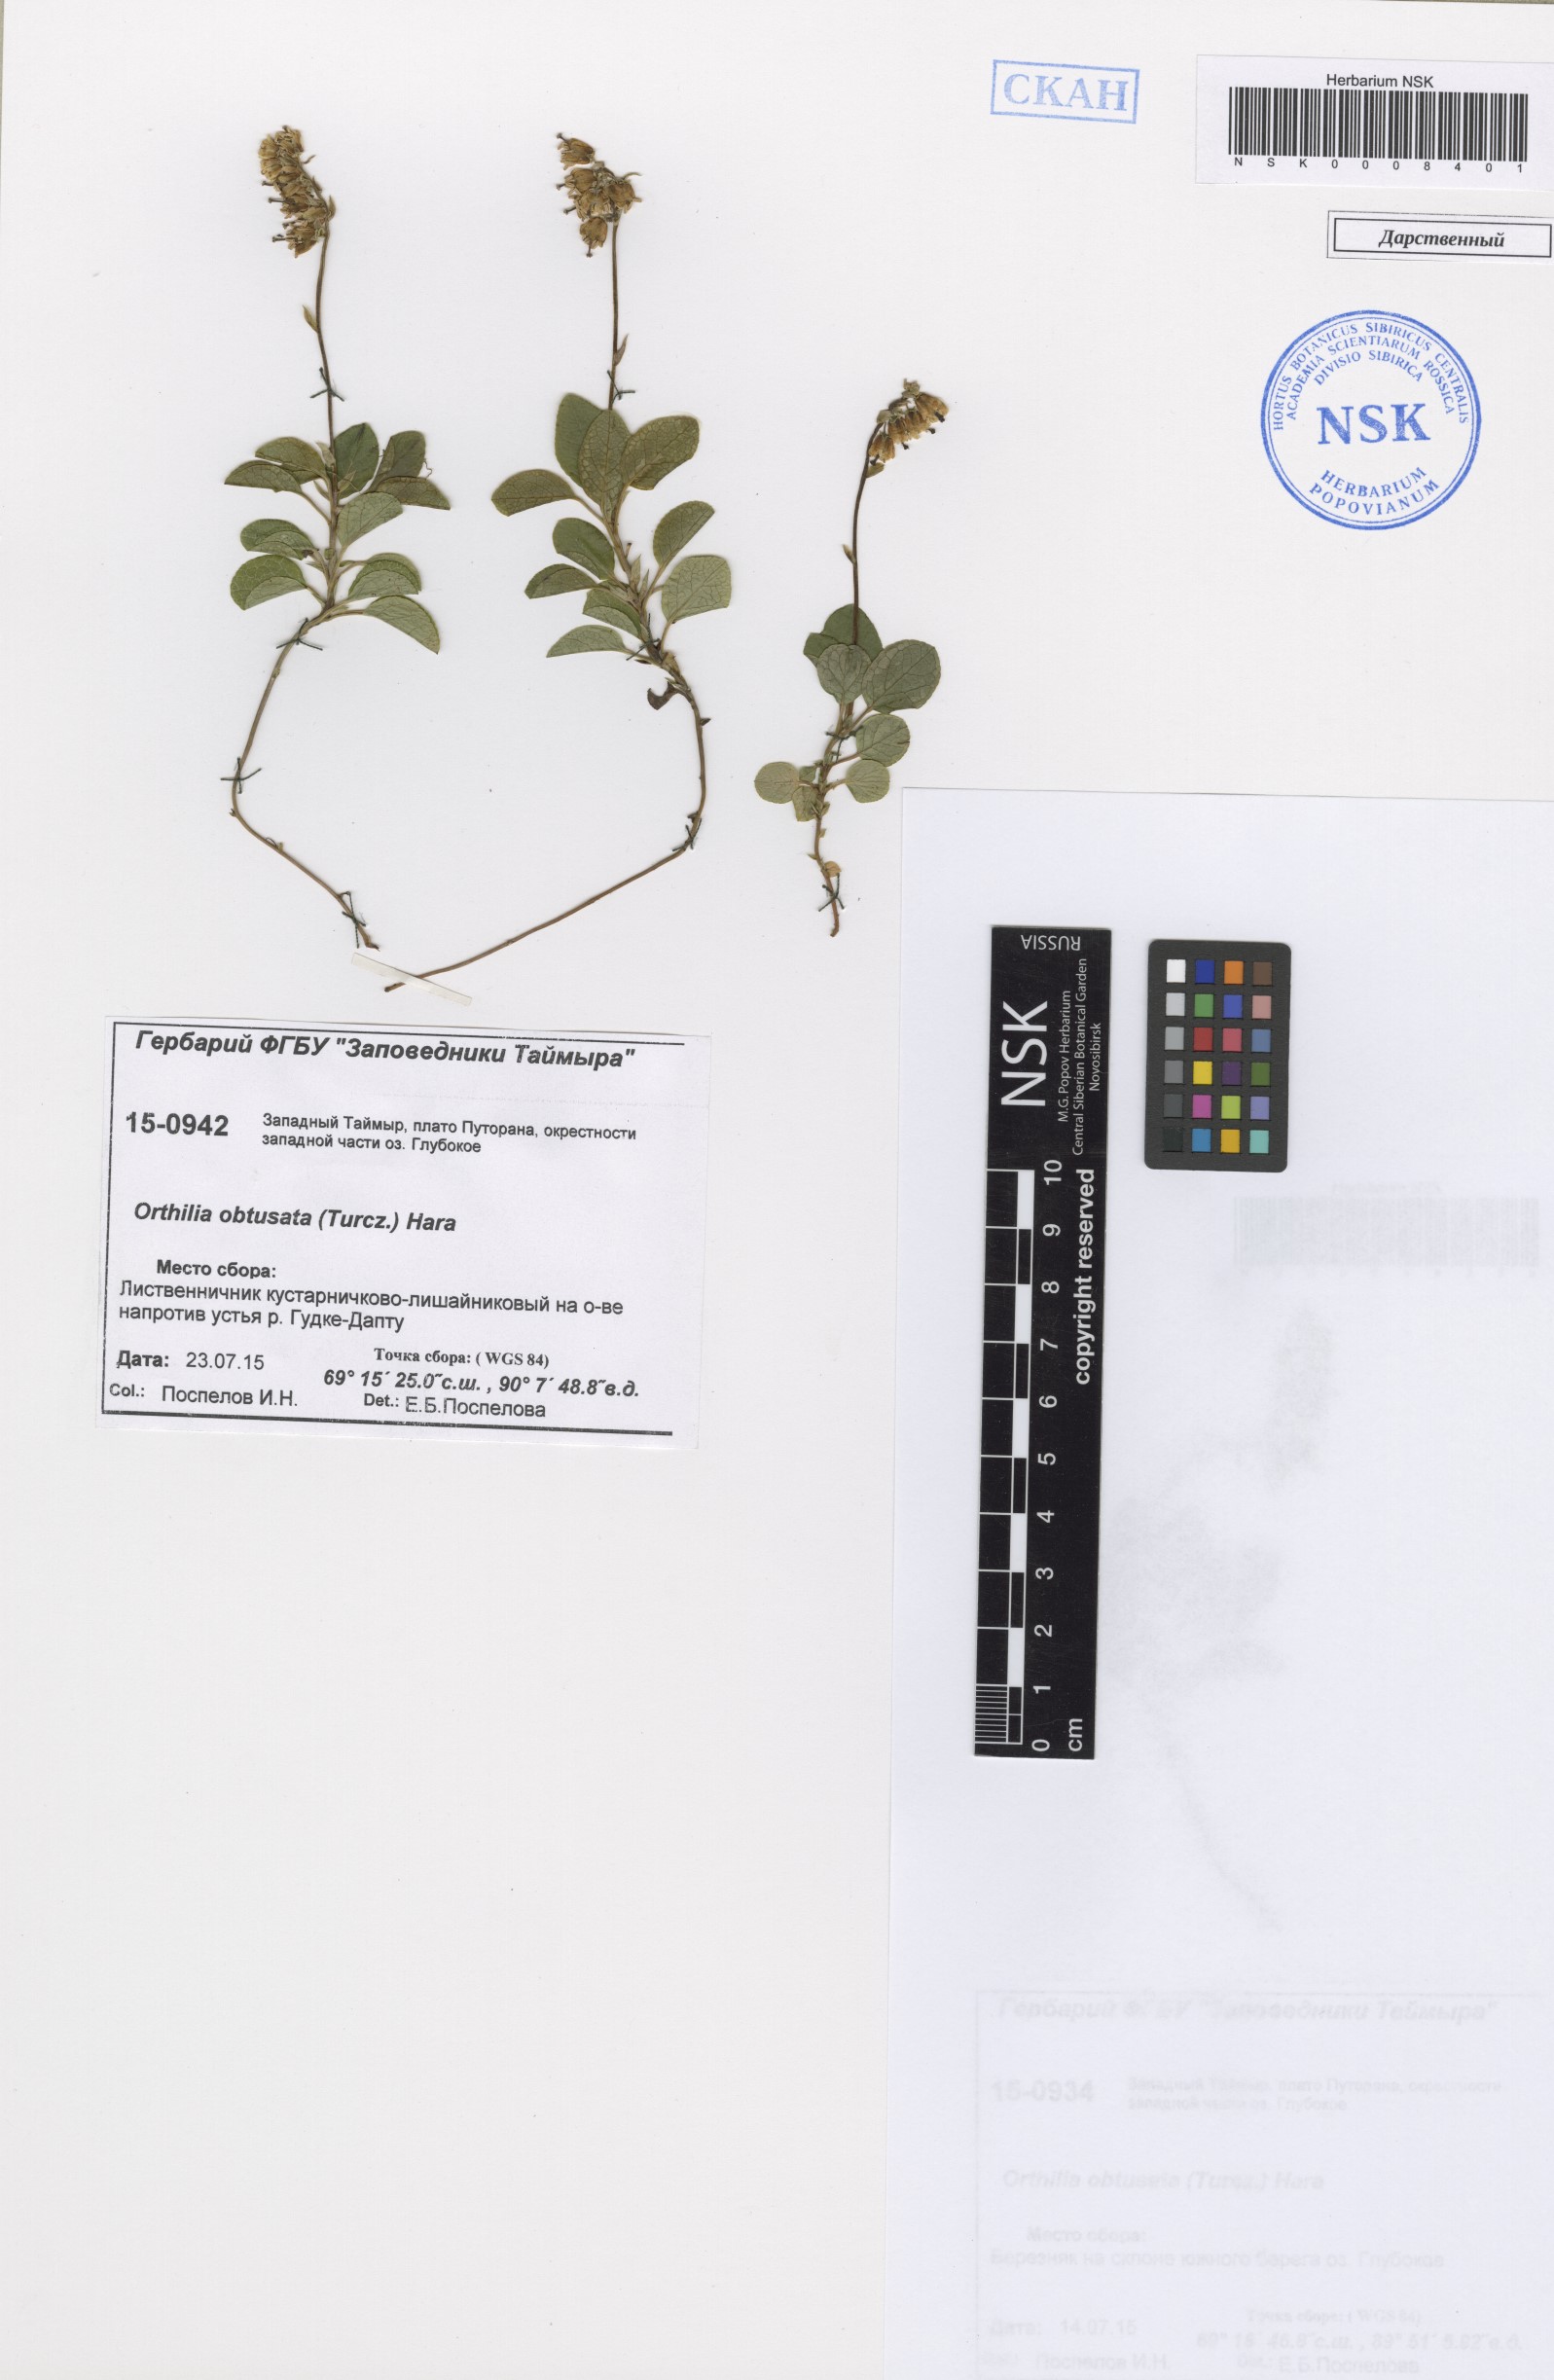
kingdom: Plantae
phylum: Tracheophyta
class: Magnoliopsida
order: Ericales
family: Ericaceae
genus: Orthilia
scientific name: Orthilia secunda
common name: One-sided orthilia
